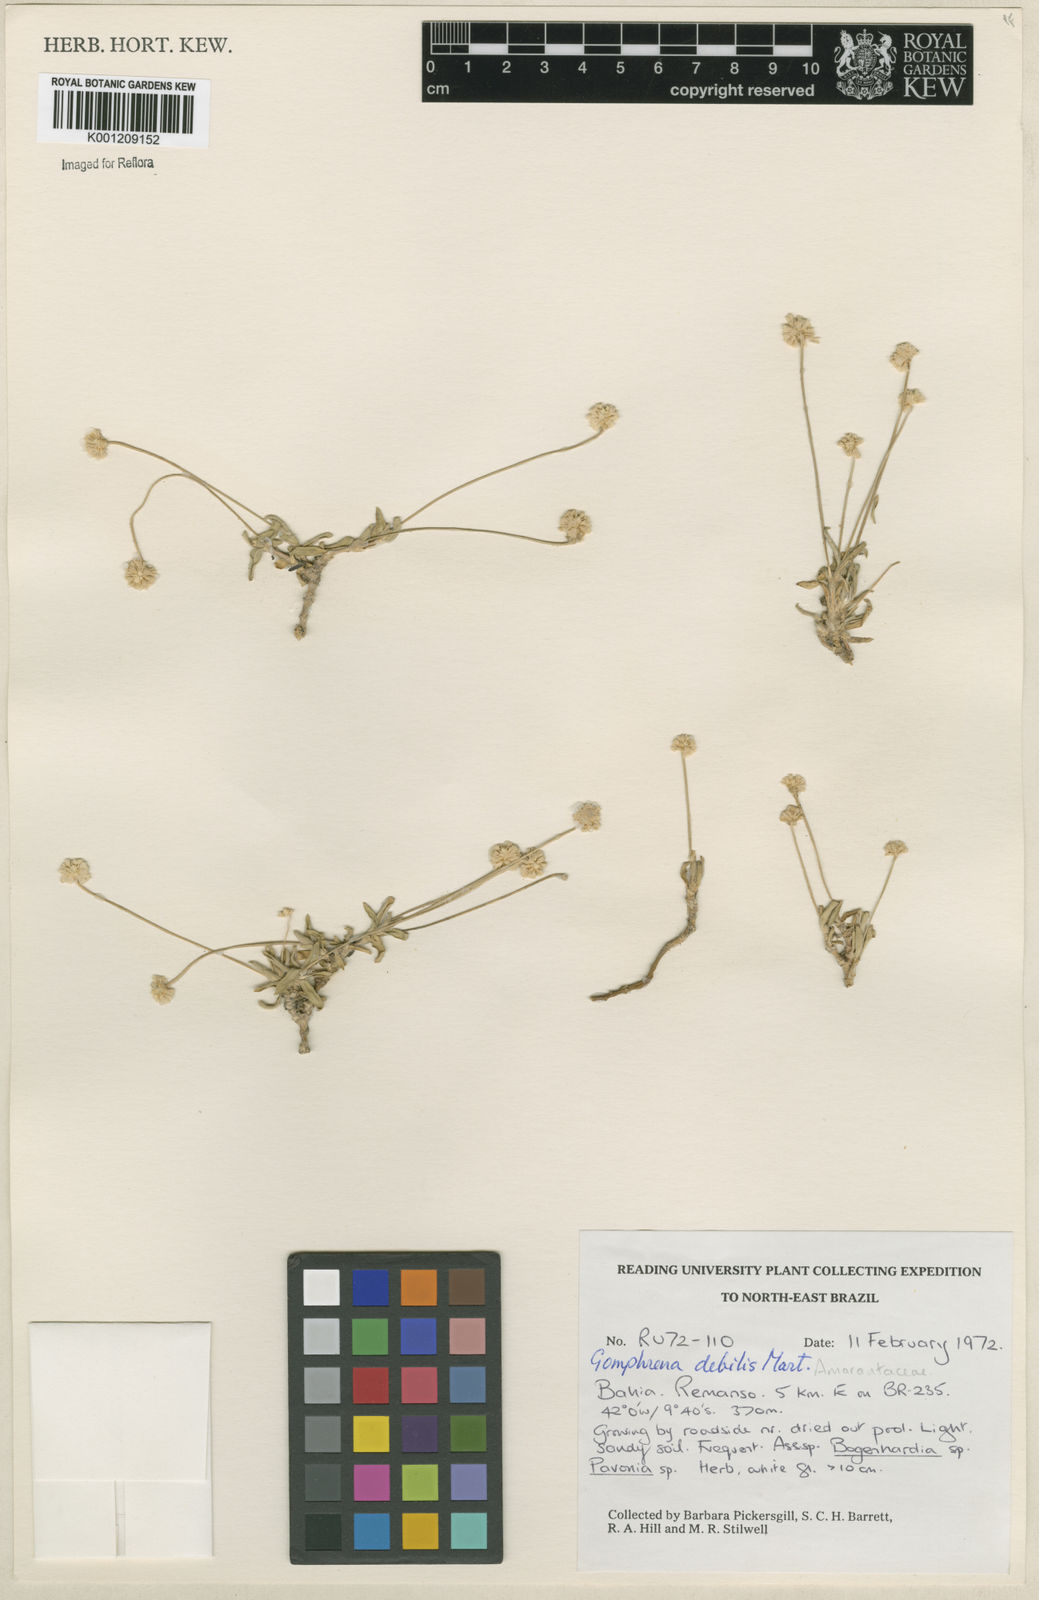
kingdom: Plantae
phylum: Tracheophyta
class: Magnoliopsida
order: Caryophyllales
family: Amaranthaceae
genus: Gomphrena
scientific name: Gomphrena debilis
